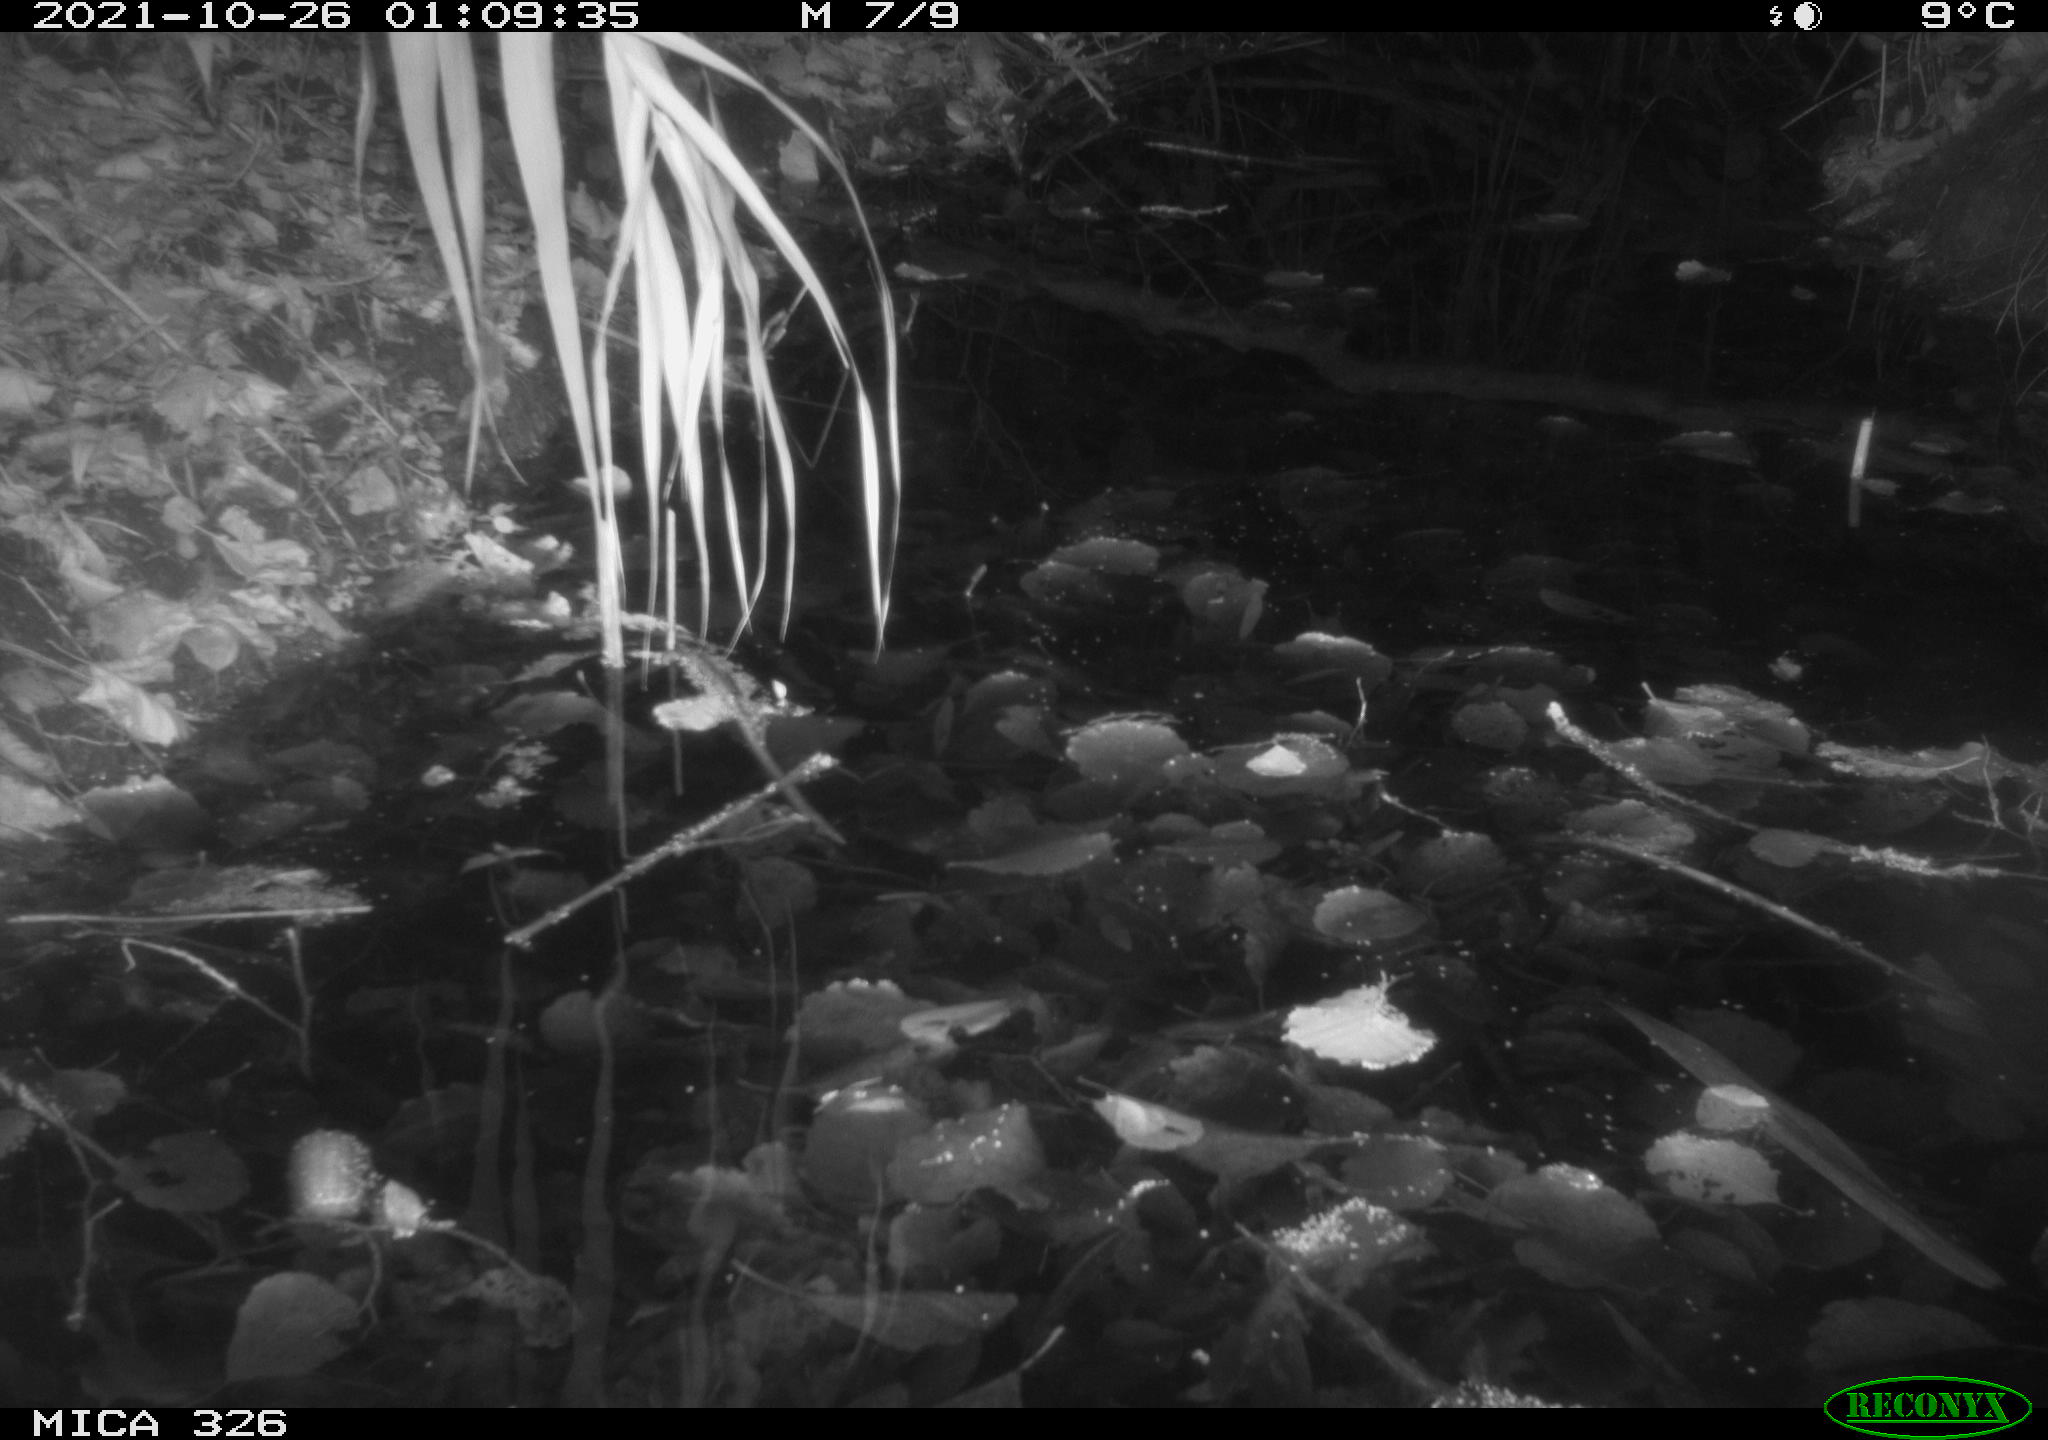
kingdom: Animalia
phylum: Chordata
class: Mammalia
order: Rodentia
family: Muridae
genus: Rattus
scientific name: Rattus norvegicus
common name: Brown rat
